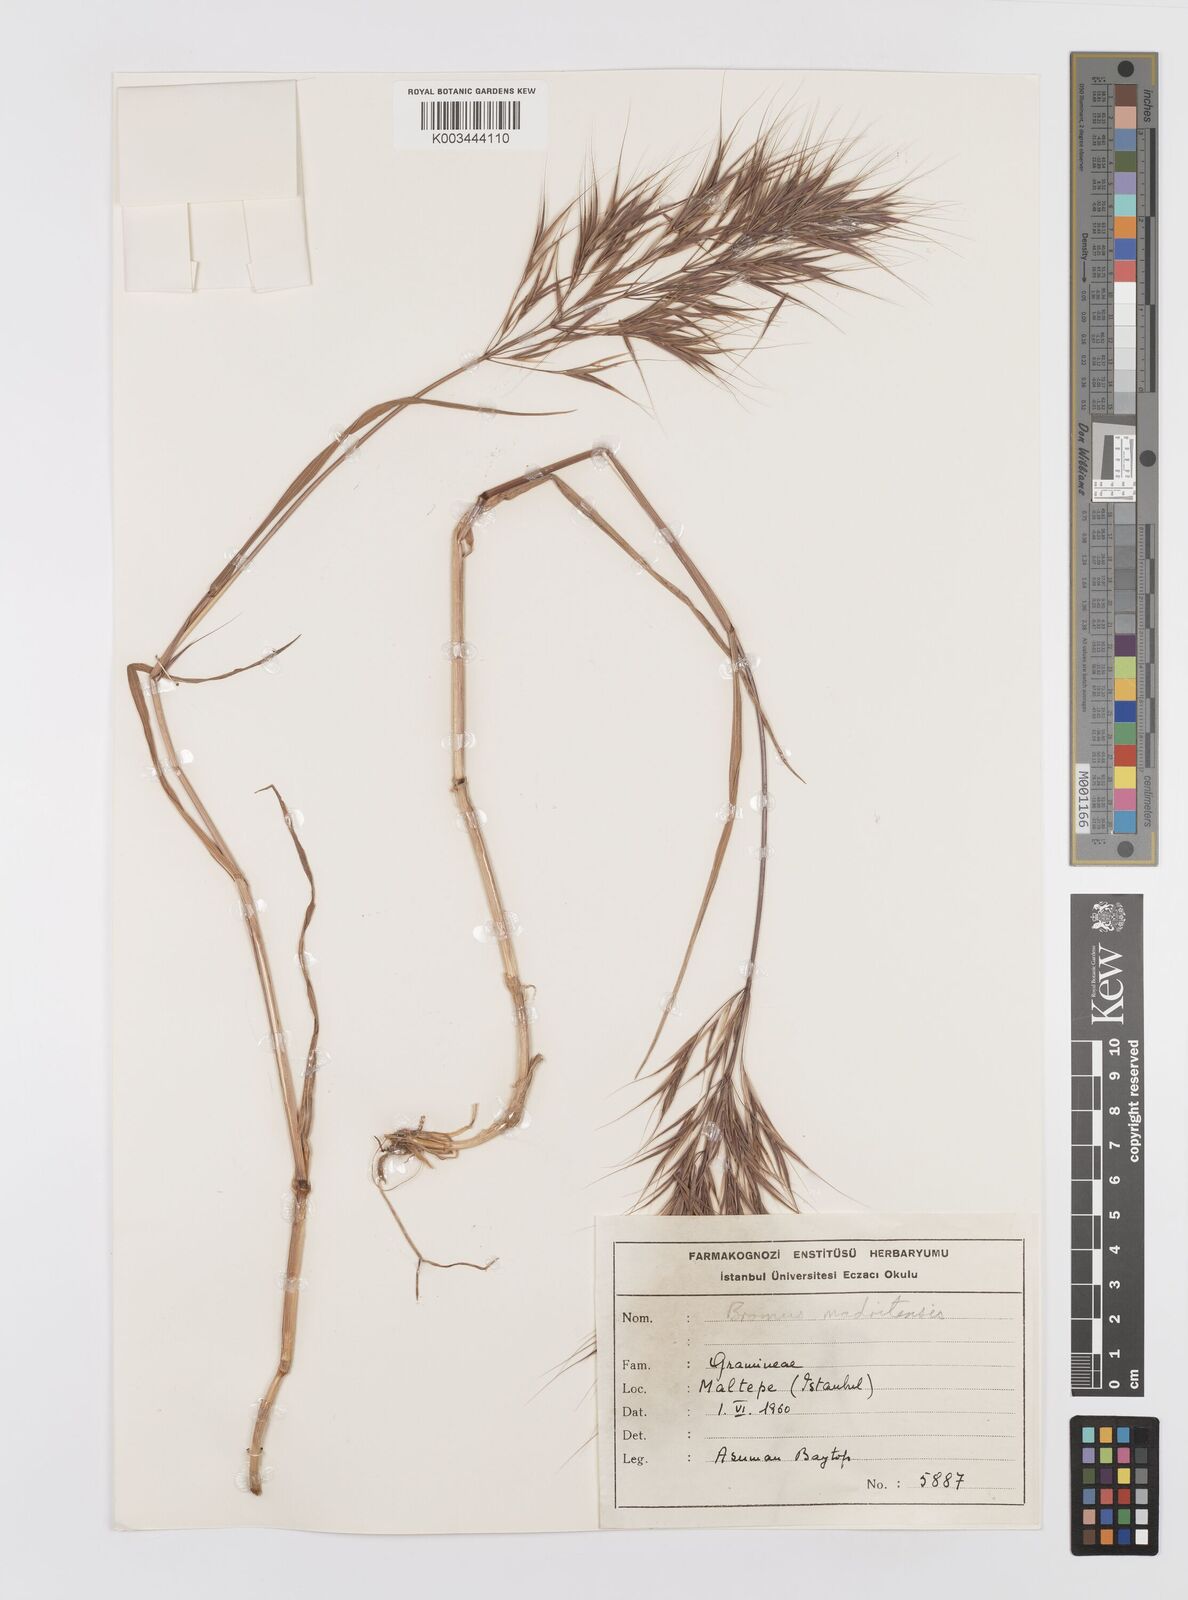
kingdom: Plantae
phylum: Tracheophyta
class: Liliopsida
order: Poales
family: Poaceae
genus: Bromus
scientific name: Bromus madritensis
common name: Compact brome
